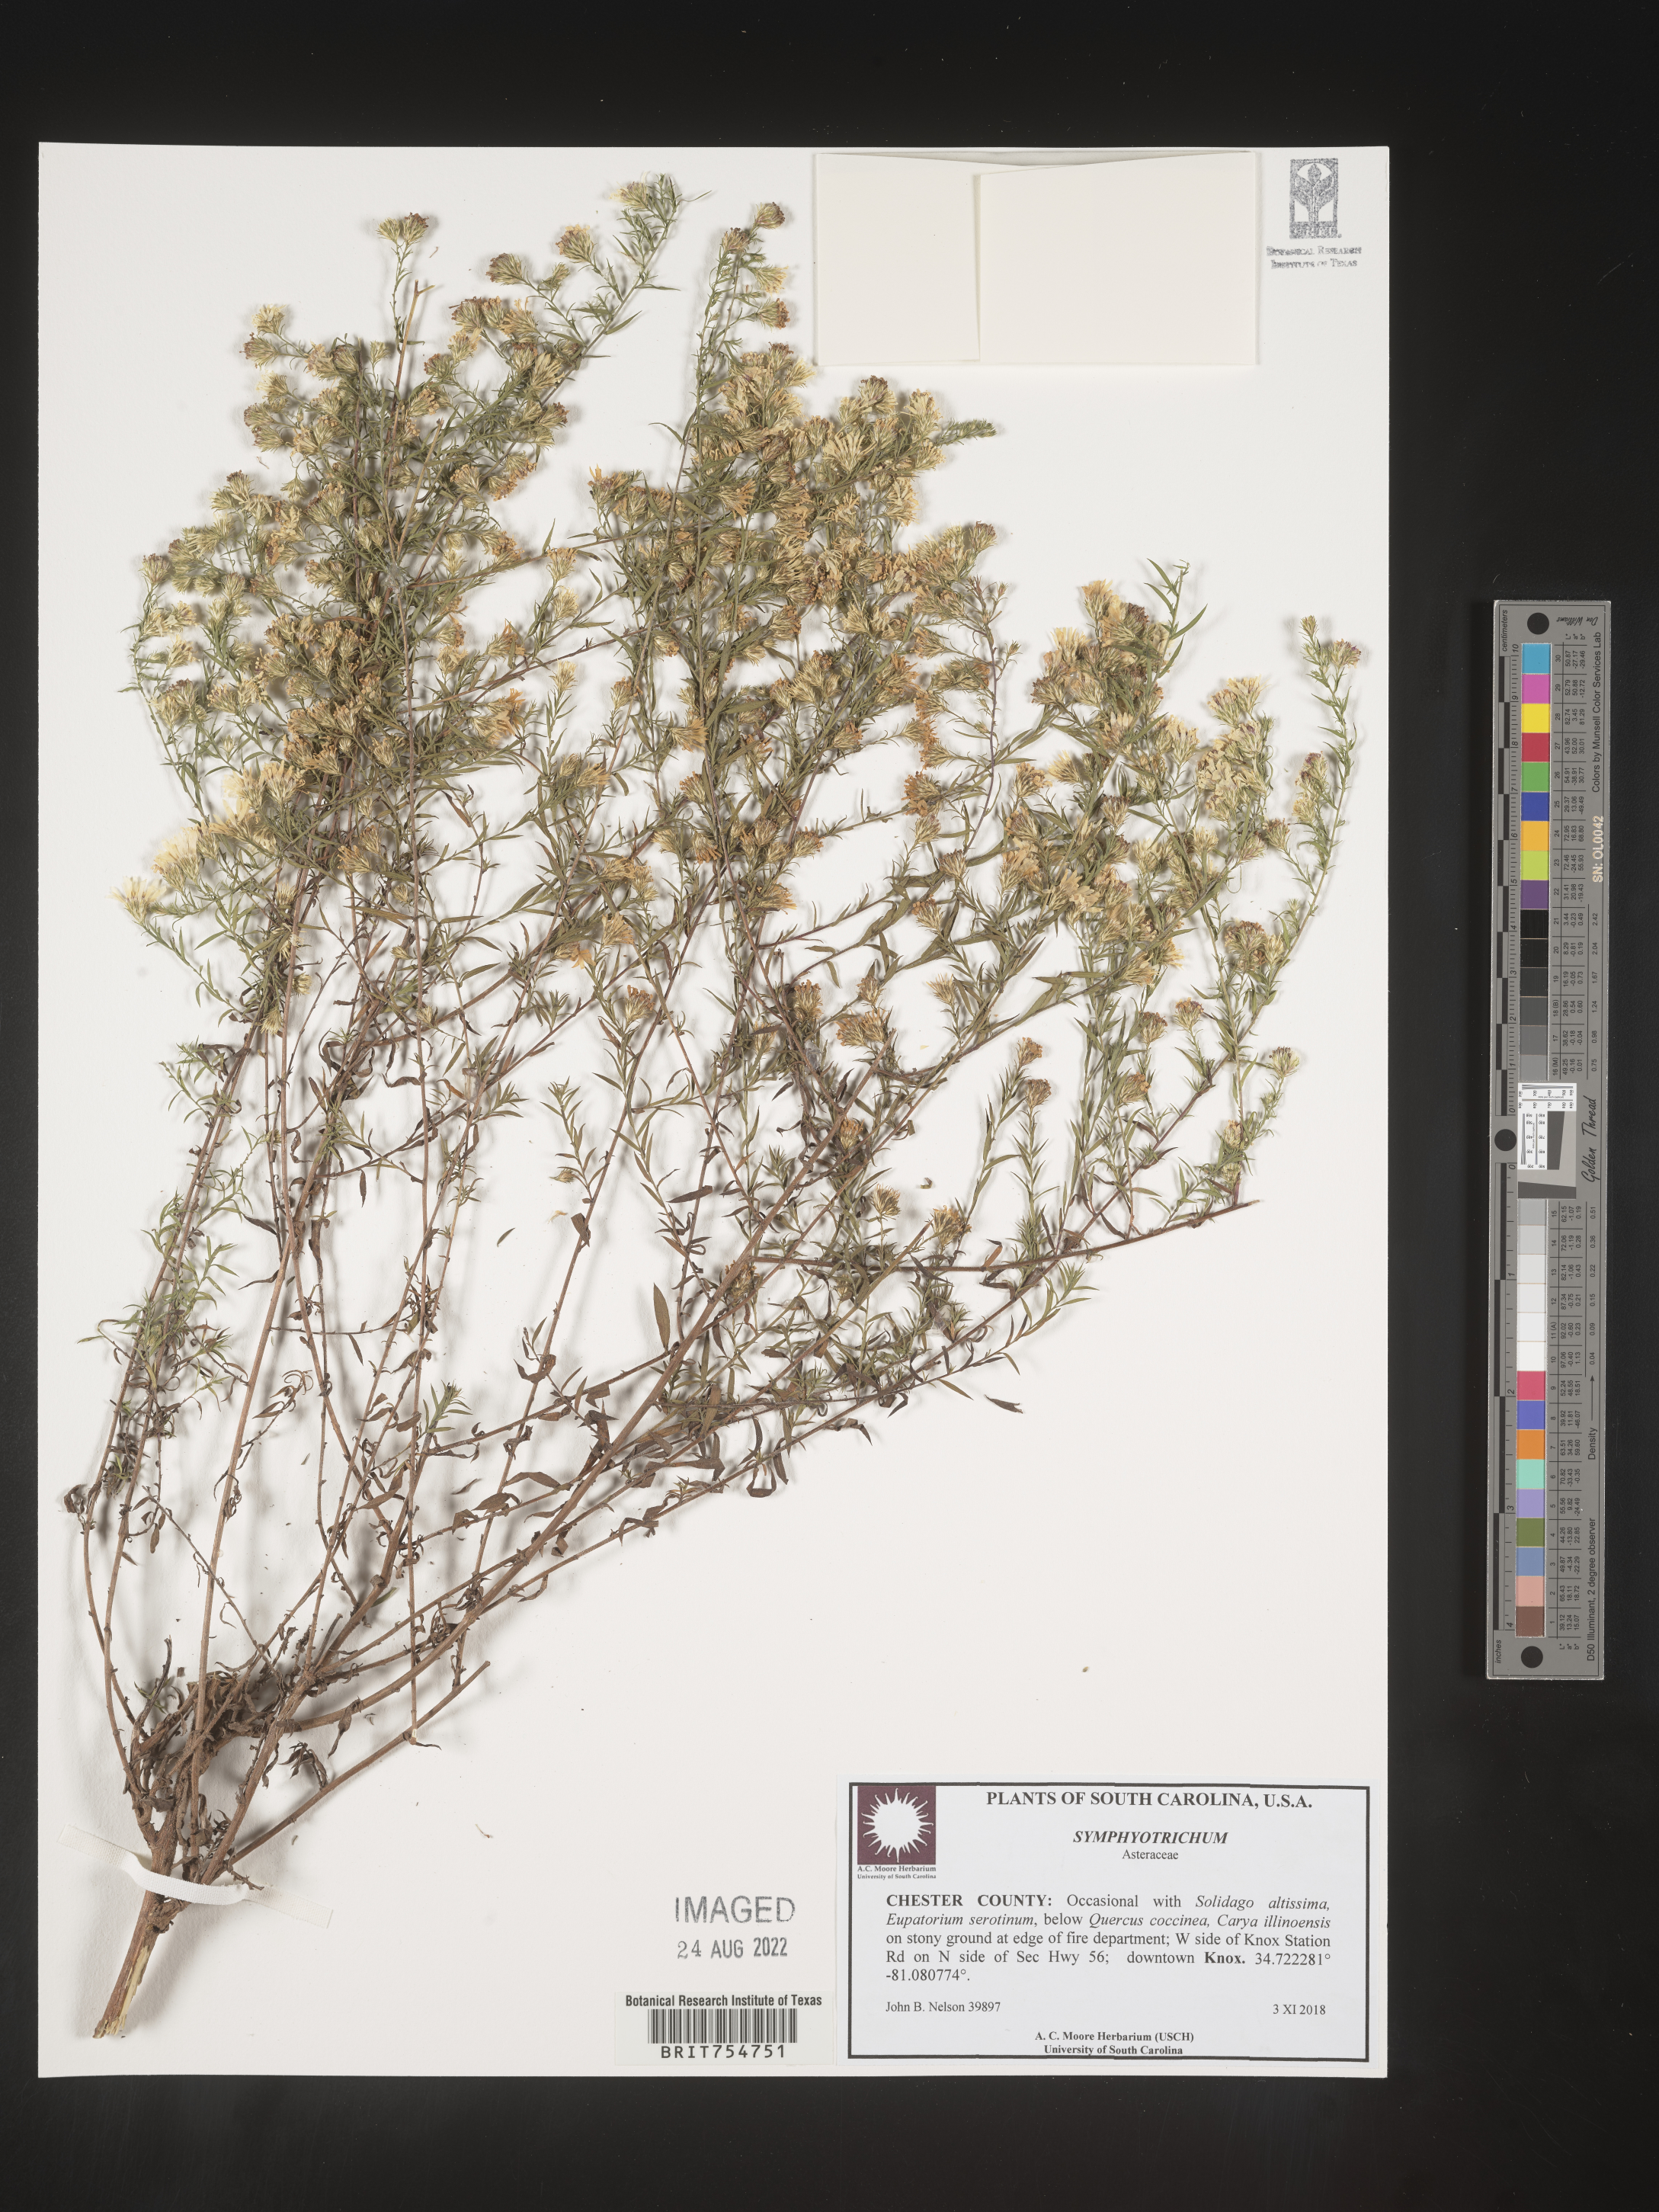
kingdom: Plantae
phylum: Tracheophyta
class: Magnoliopsida
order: Asterales
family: Asteraceae
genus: Symphyotrichum
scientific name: Symphyotrichum
